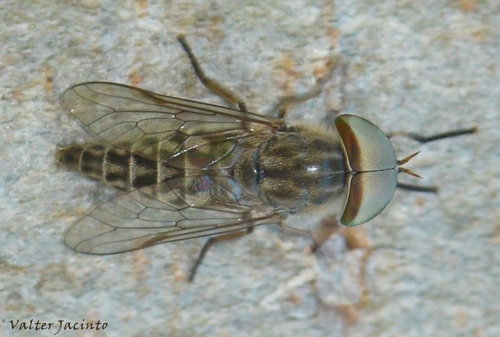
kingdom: Animalia
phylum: Arthropoda
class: Insecta
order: Diptera
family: Tabanidae
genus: Tabanus
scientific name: Tabanus regularis
